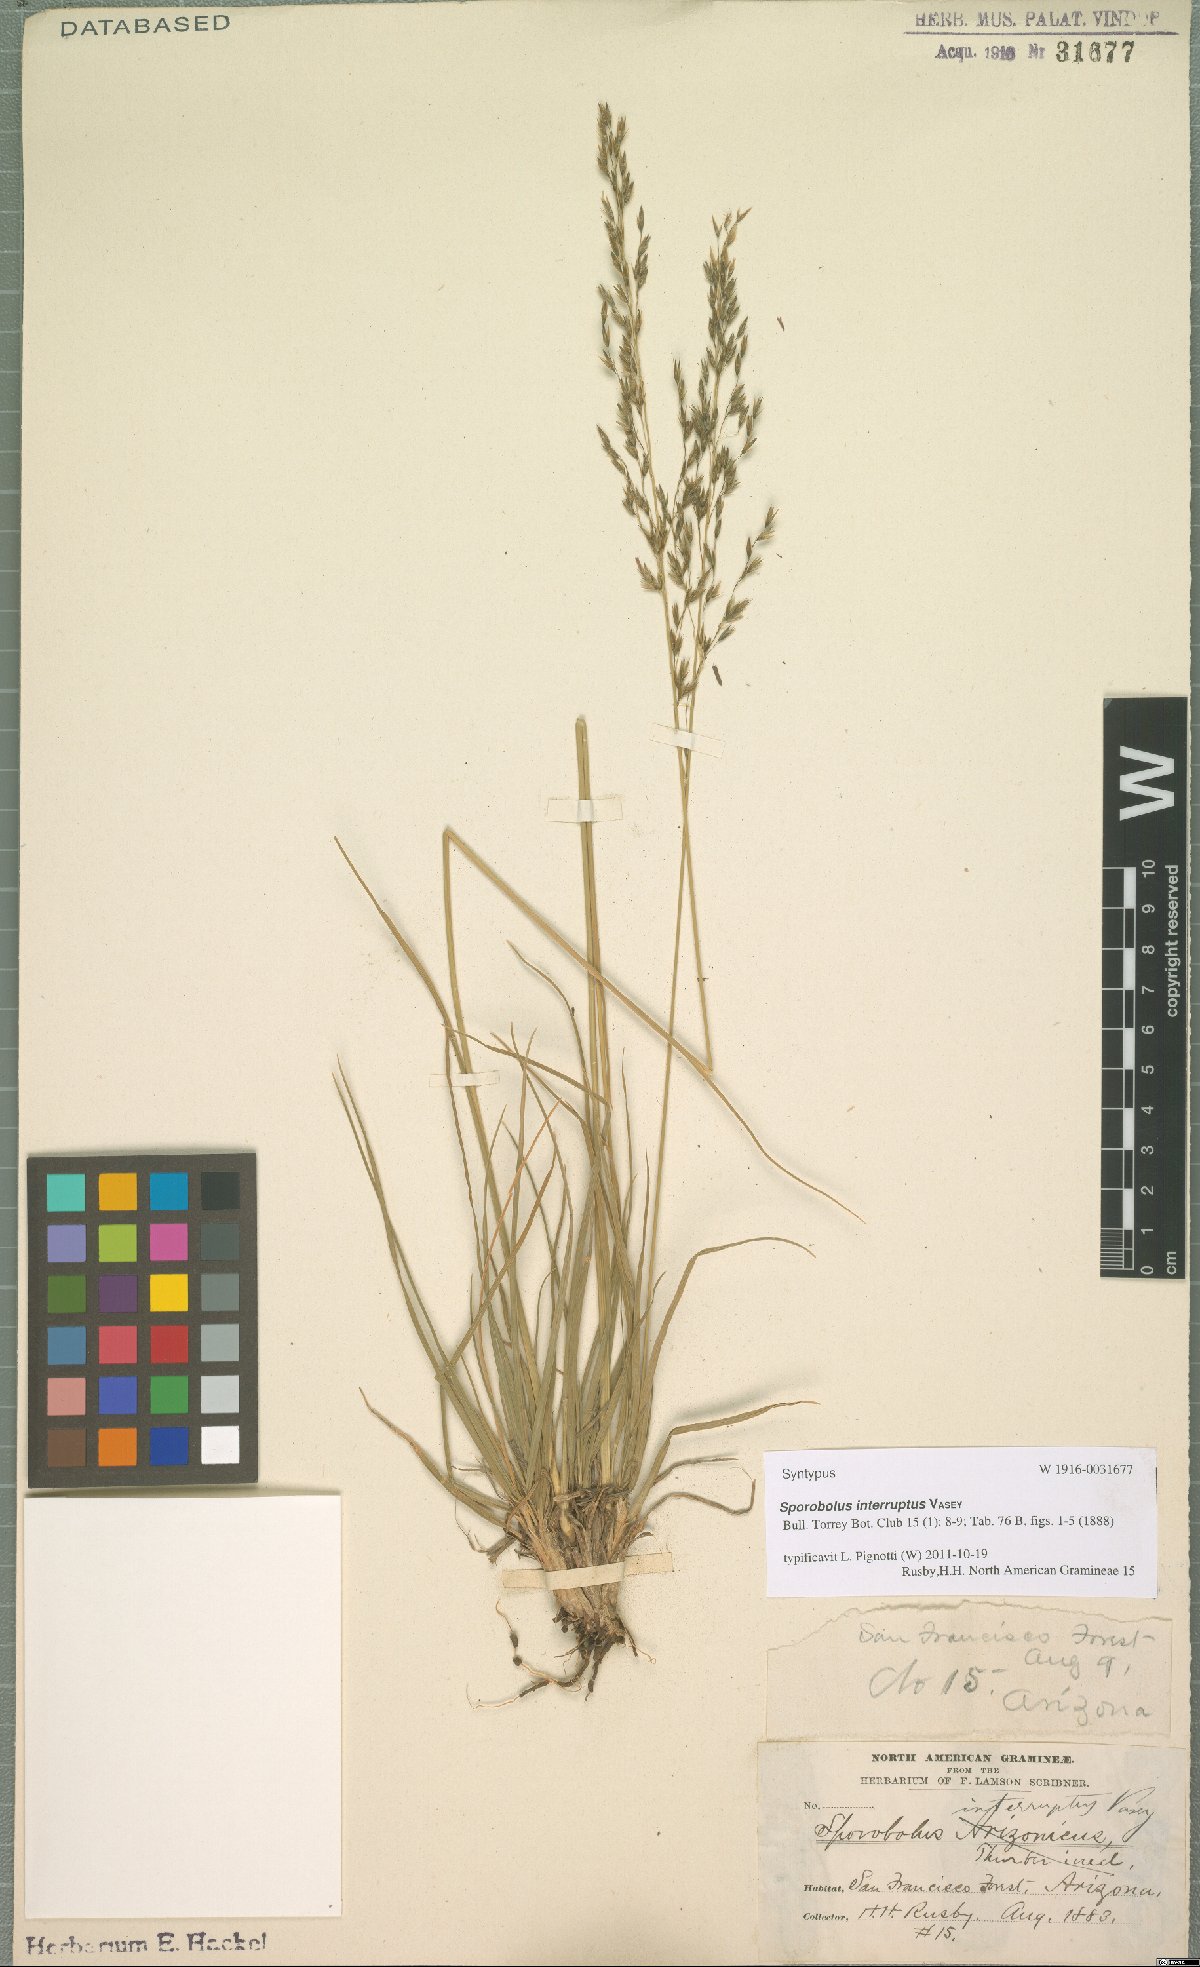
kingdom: Plantae
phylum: Tracheophyta
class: Liliopsida
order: Poales
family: Poaceae
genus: Sporobolus
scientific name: Sporobolus interruptus
